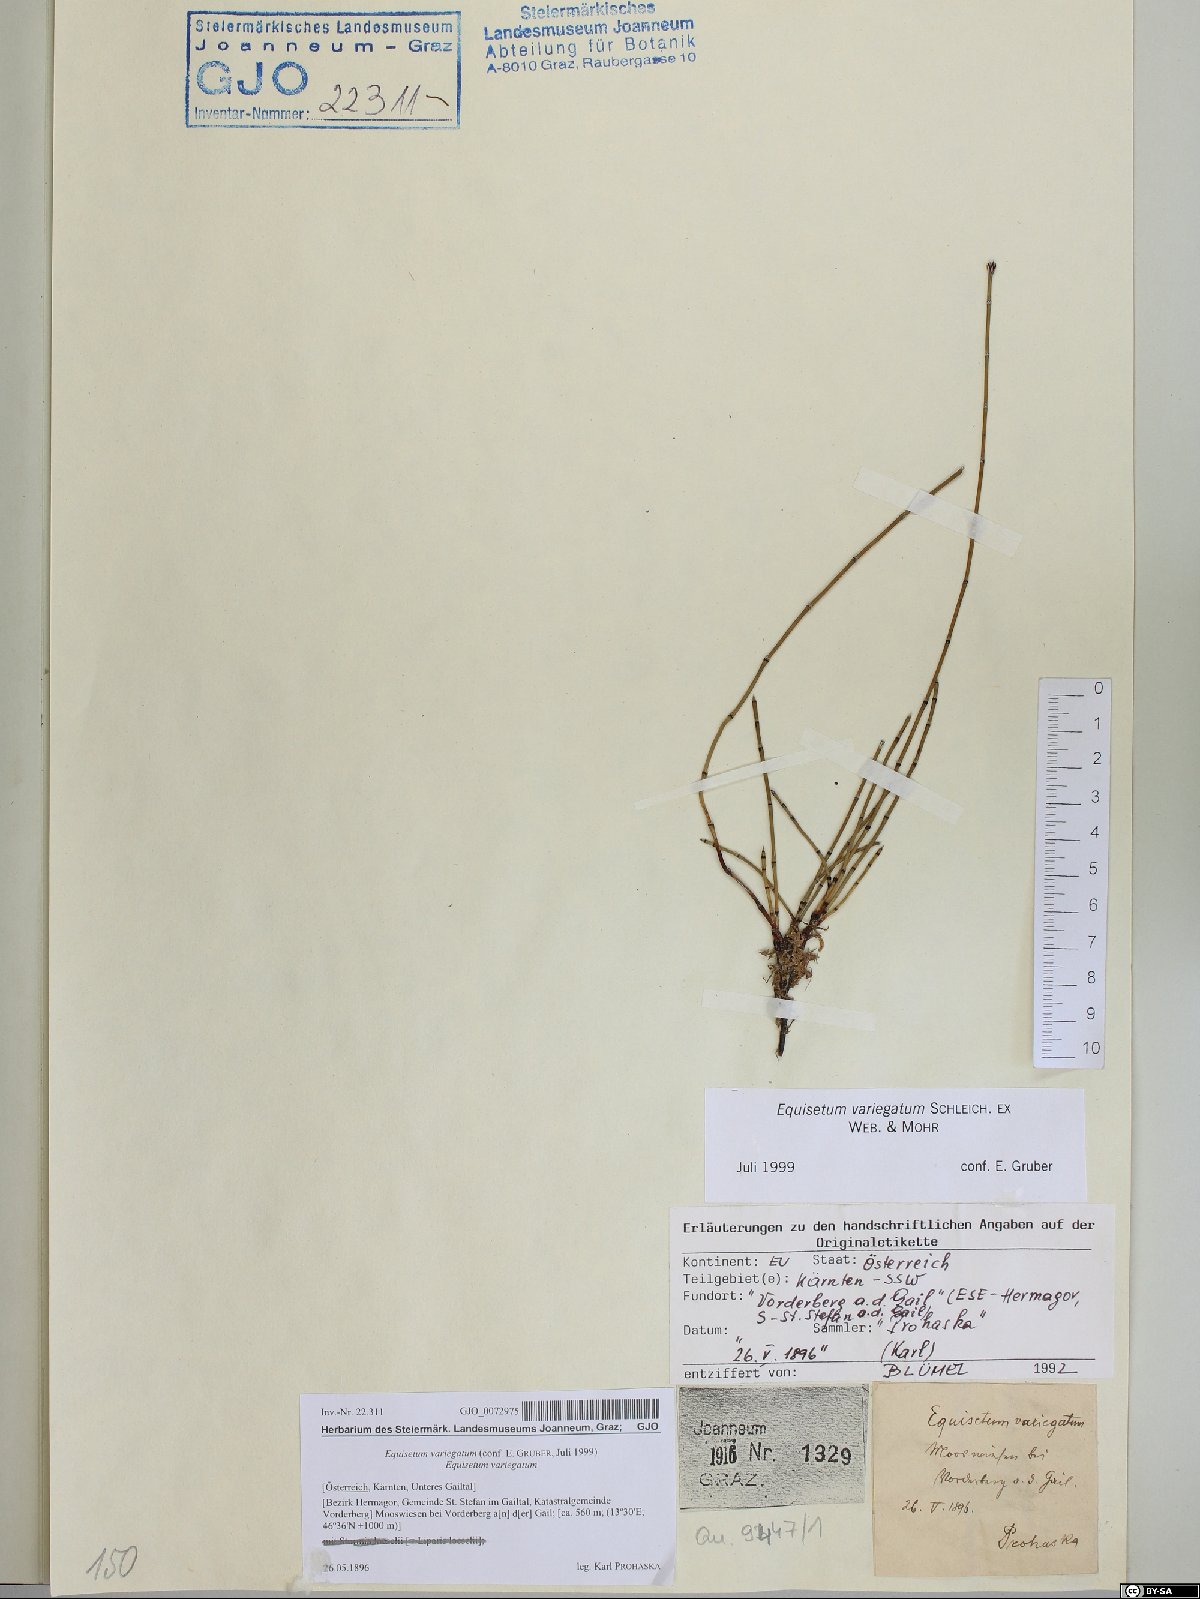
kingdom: Plantae
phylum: Tracheophyta
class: Polypodiopsida
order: Equisetales
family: Equisetaceae
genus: Equisetum
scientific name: Equisetum variegatum
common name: Variegated horsetail
